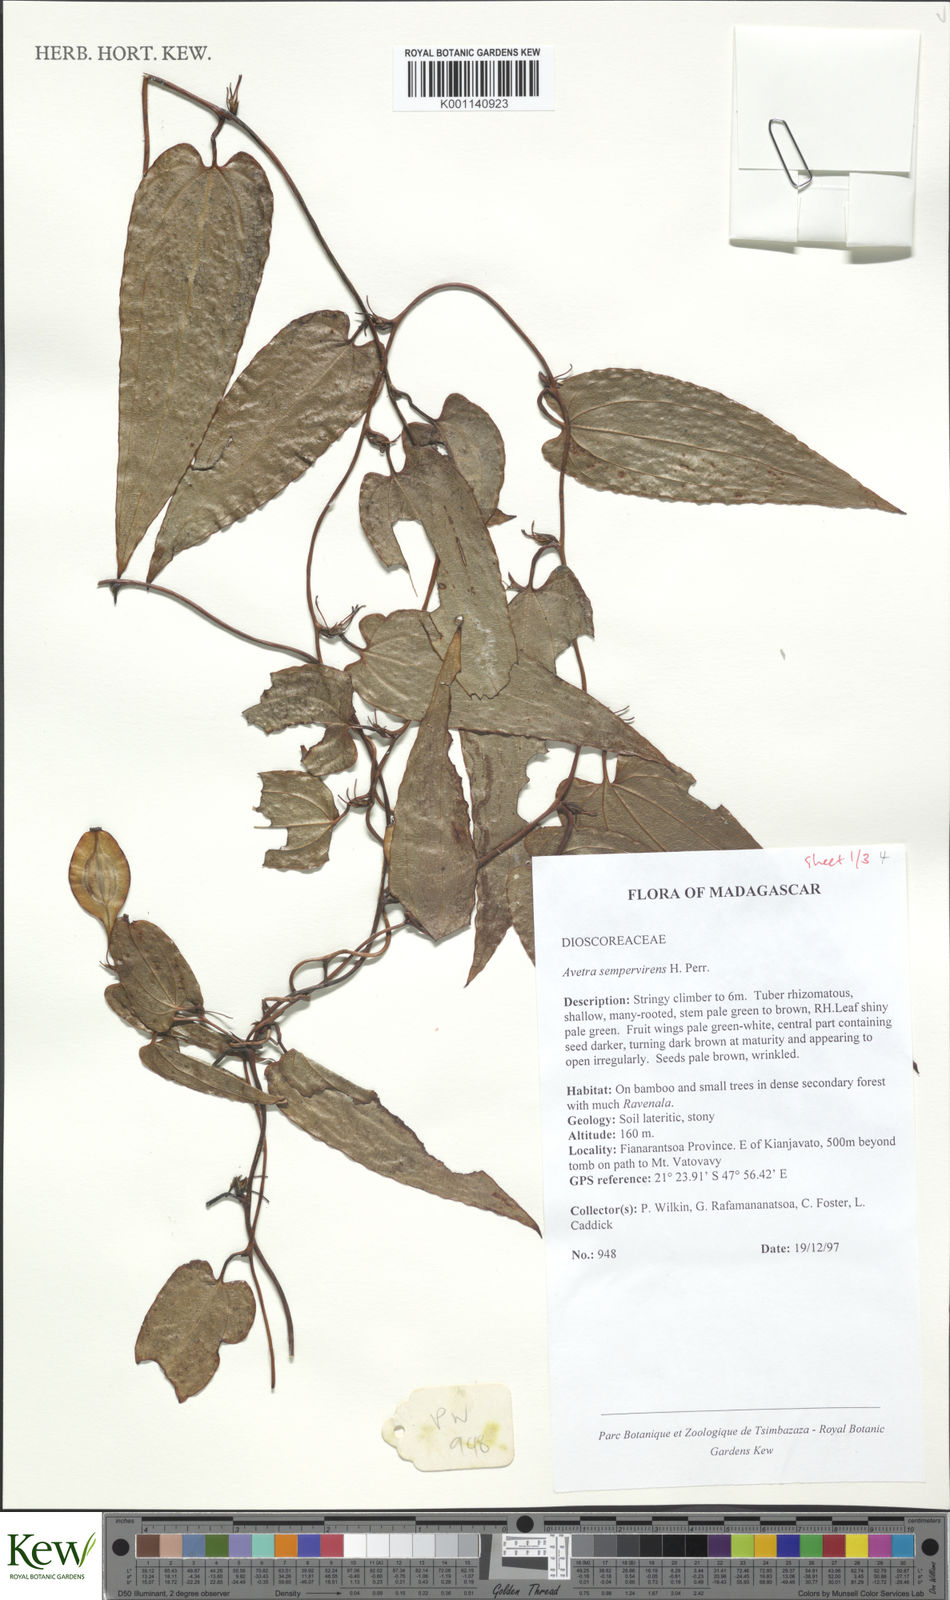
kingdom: Plantae
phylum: Tracheophyta
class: Liliopsida
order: Dioscoreales
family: Dioscoreaceae
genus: Trichopus
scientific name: Trichopus sempervirens
